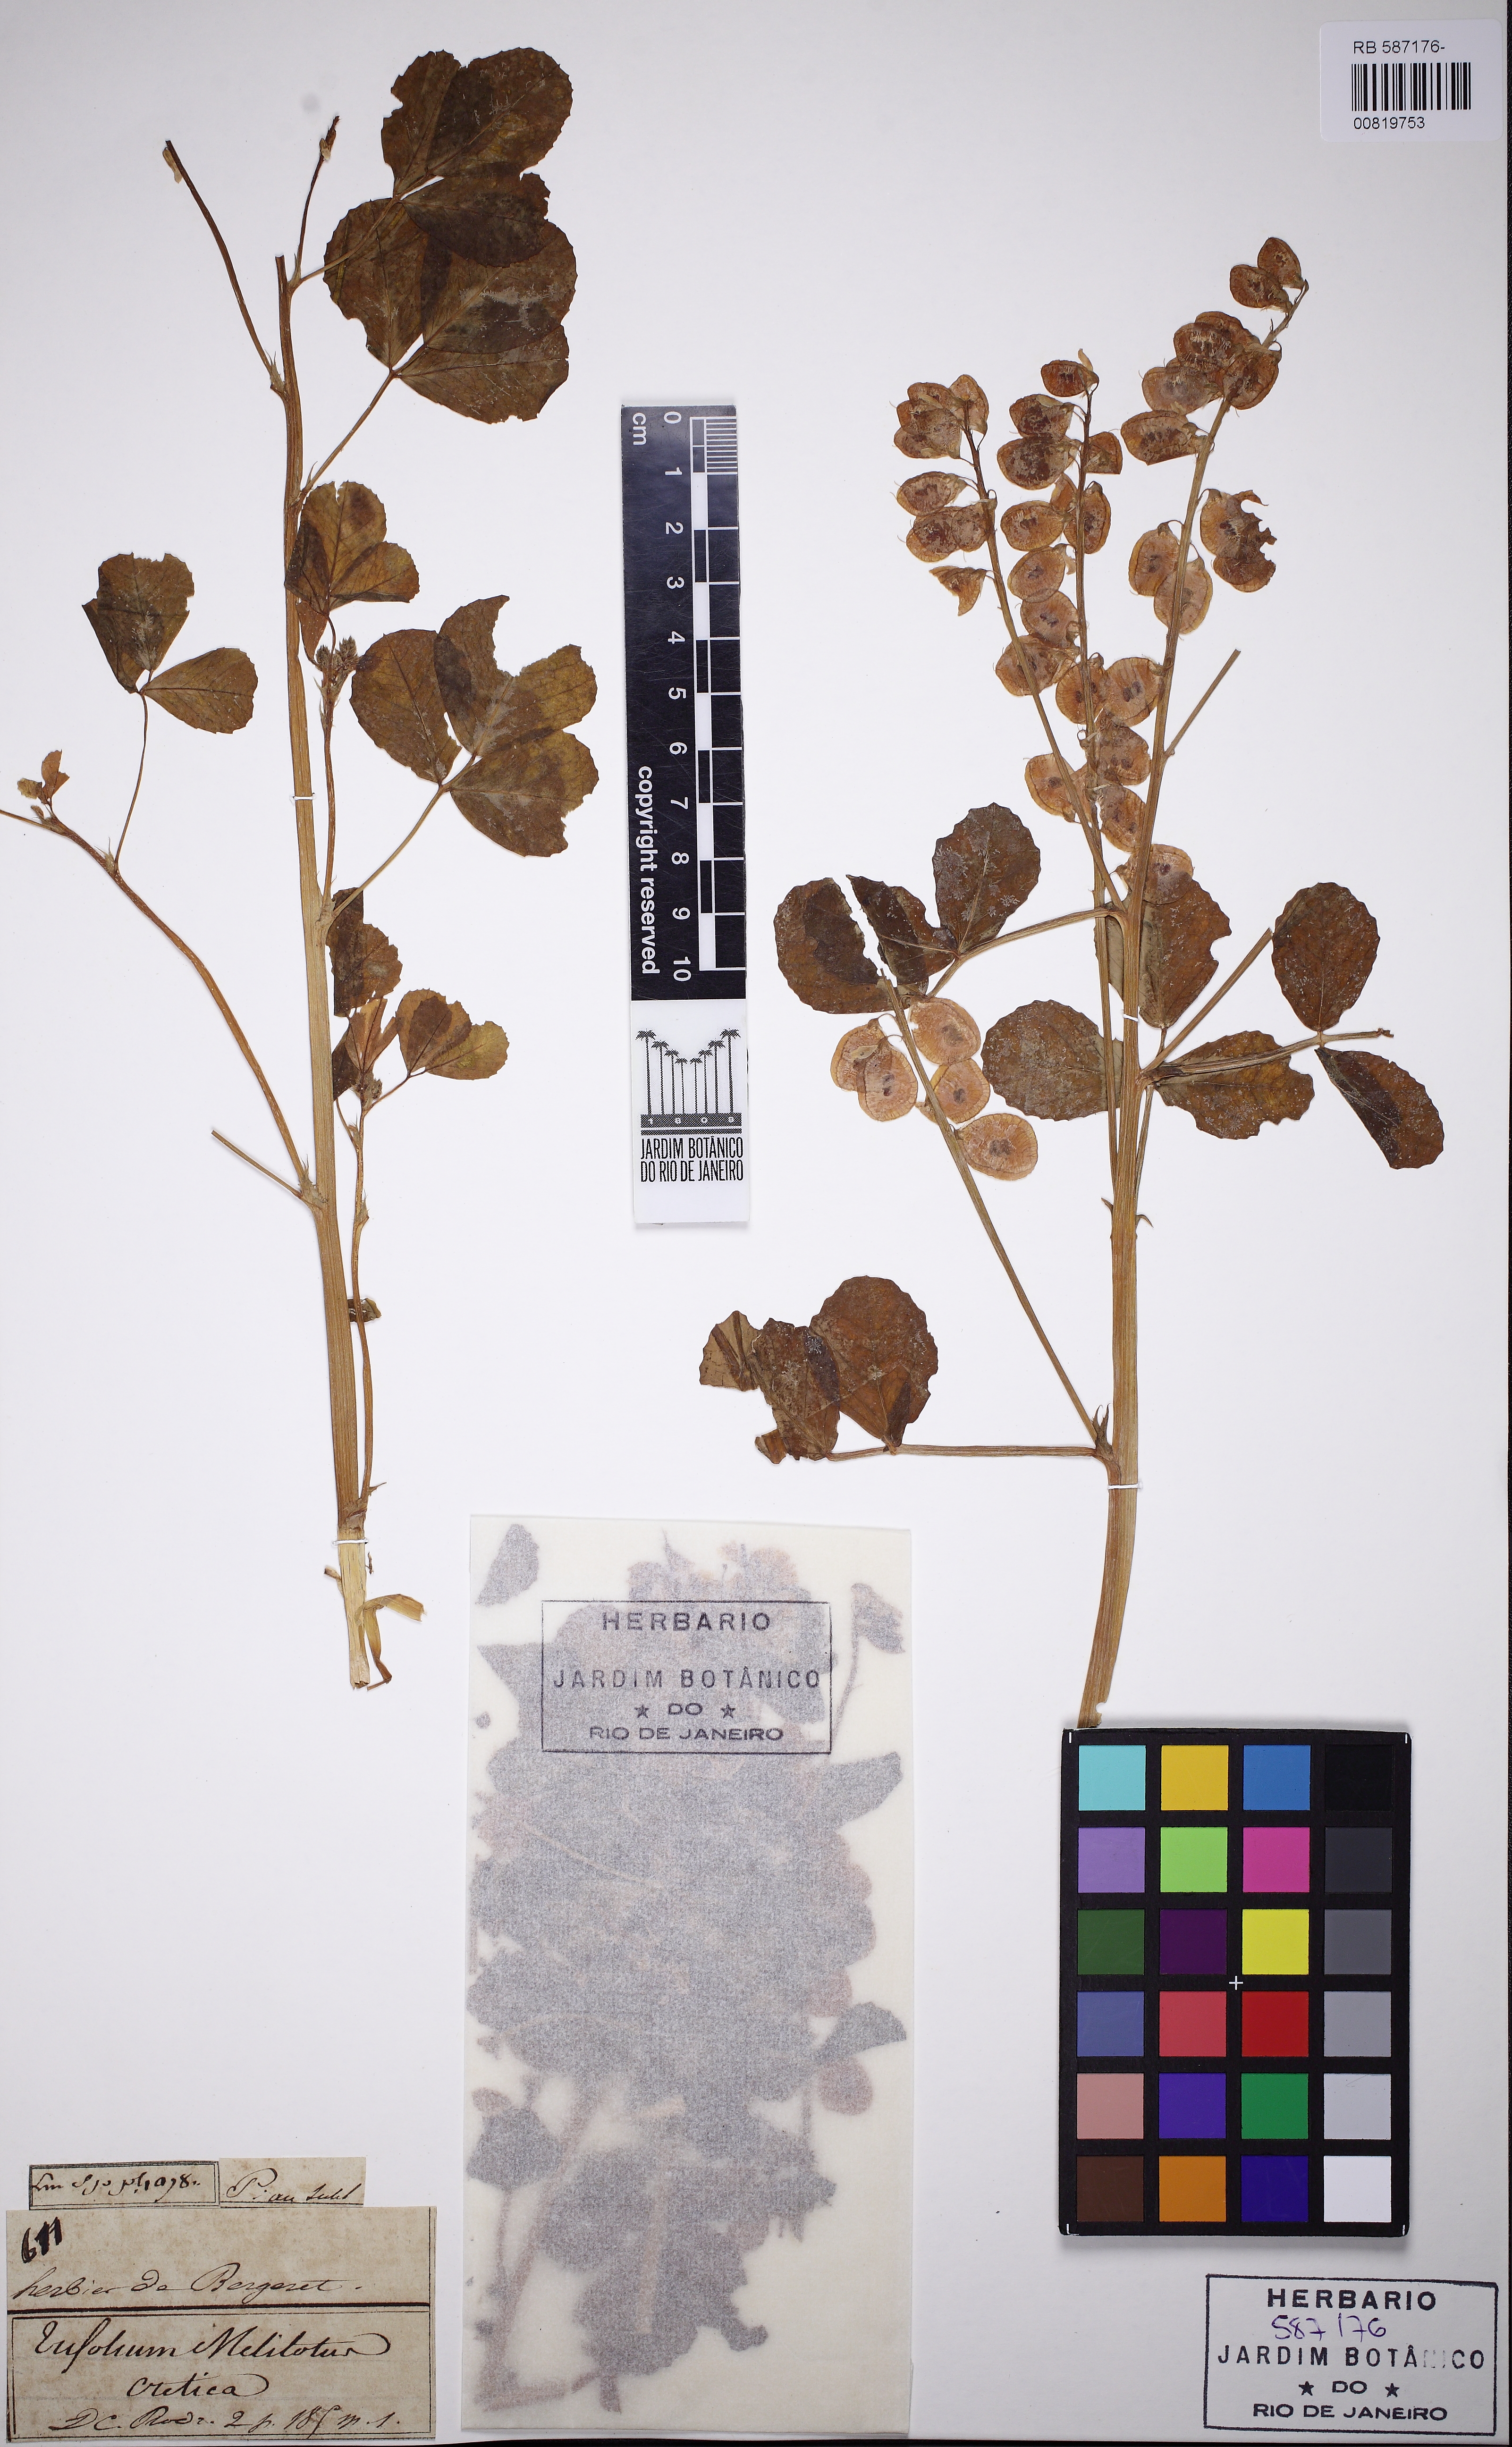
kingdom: Plantae
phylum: Tracheophyta
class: Magnoliopsida
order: Fabales
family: Fabaceae
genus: Trigonella
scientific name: Trigonella cretica
